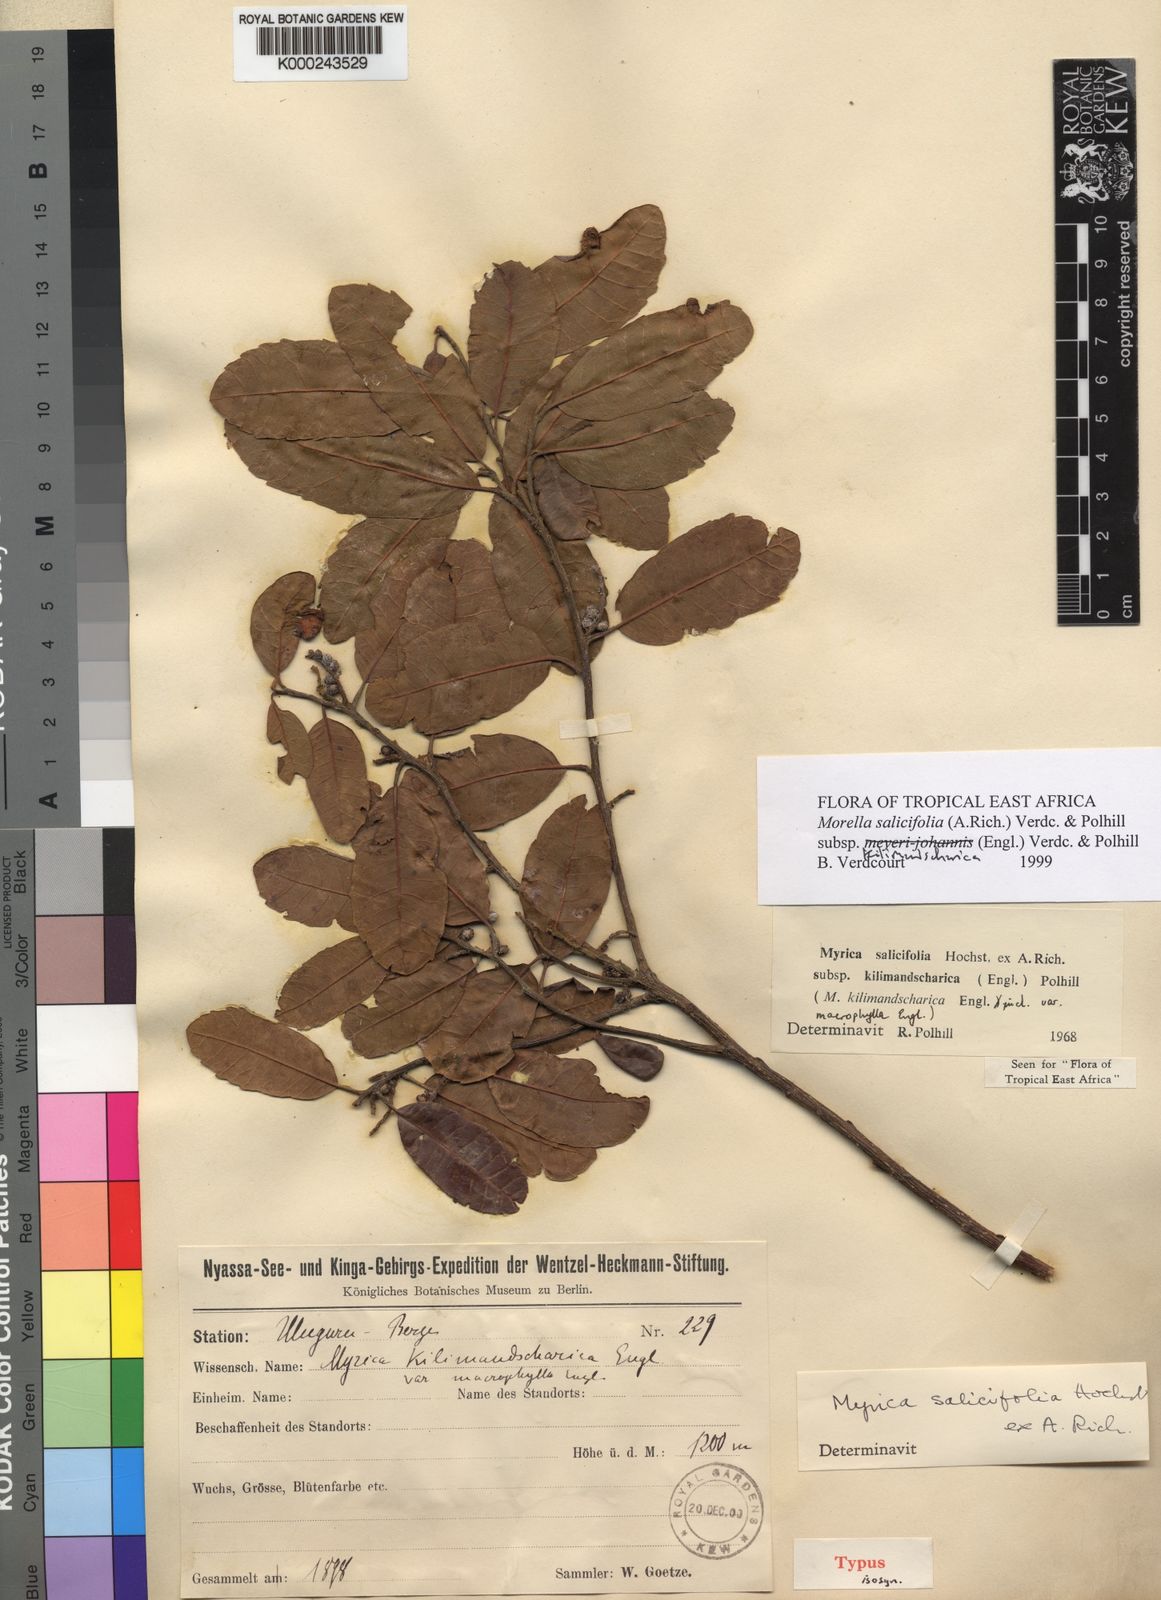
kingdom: Plantae
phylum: Tracheophyta
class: Magnoliopsida
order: Fagales
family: Myricaceae
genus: Morella
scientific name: Morella salicifolia
